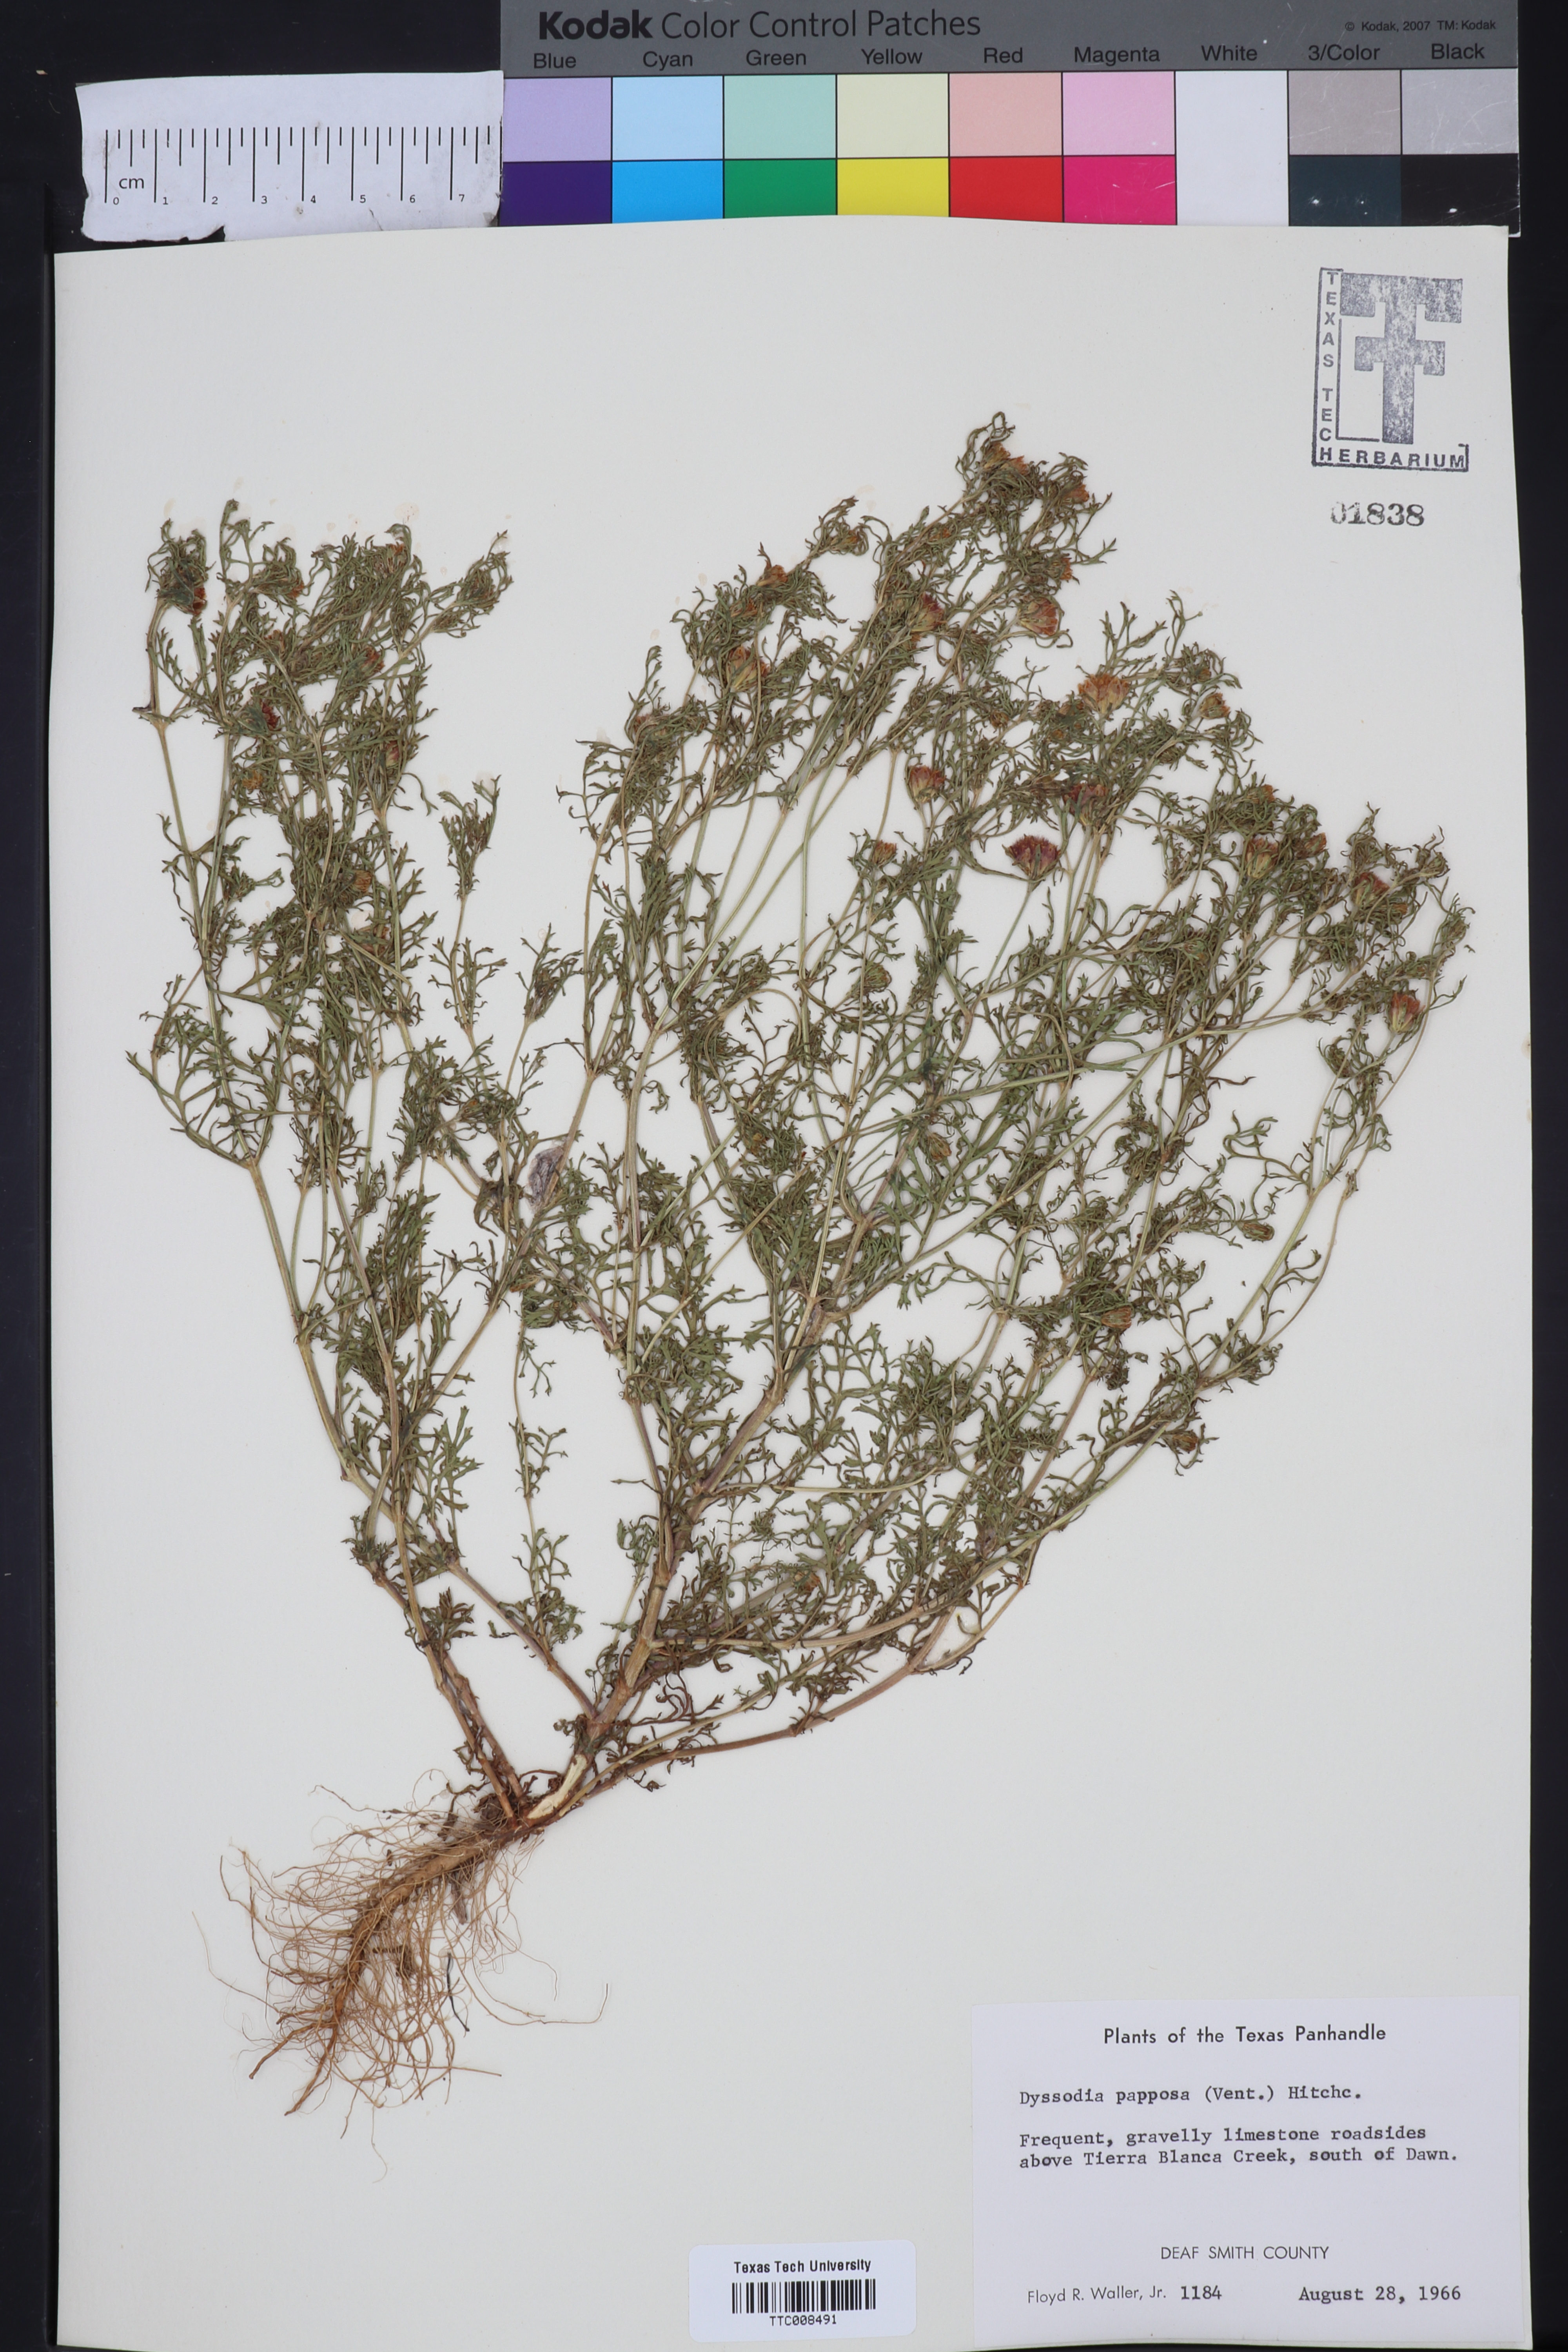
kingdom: Plantae
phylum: Tracheophyta
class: Magnoliopsida
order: Asterales
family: Asteraceae
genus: Dyssodia
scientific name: Dyssodia papposa
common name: Dogweed
